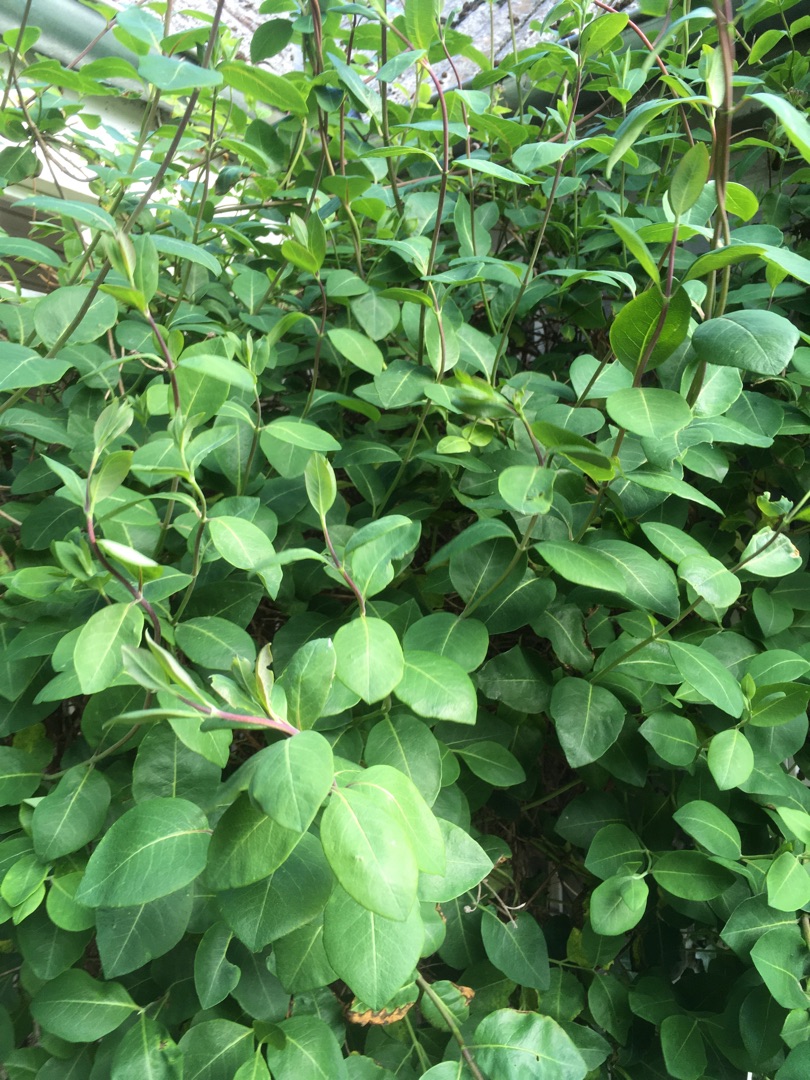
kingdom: Plantae
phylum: Tracheophyta
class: Magnoliopsida
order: Dipsacales
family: Caprifoliaceae
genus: Lonicera
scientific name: Lonicera periclymenum
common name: Almindelig gedeblad
